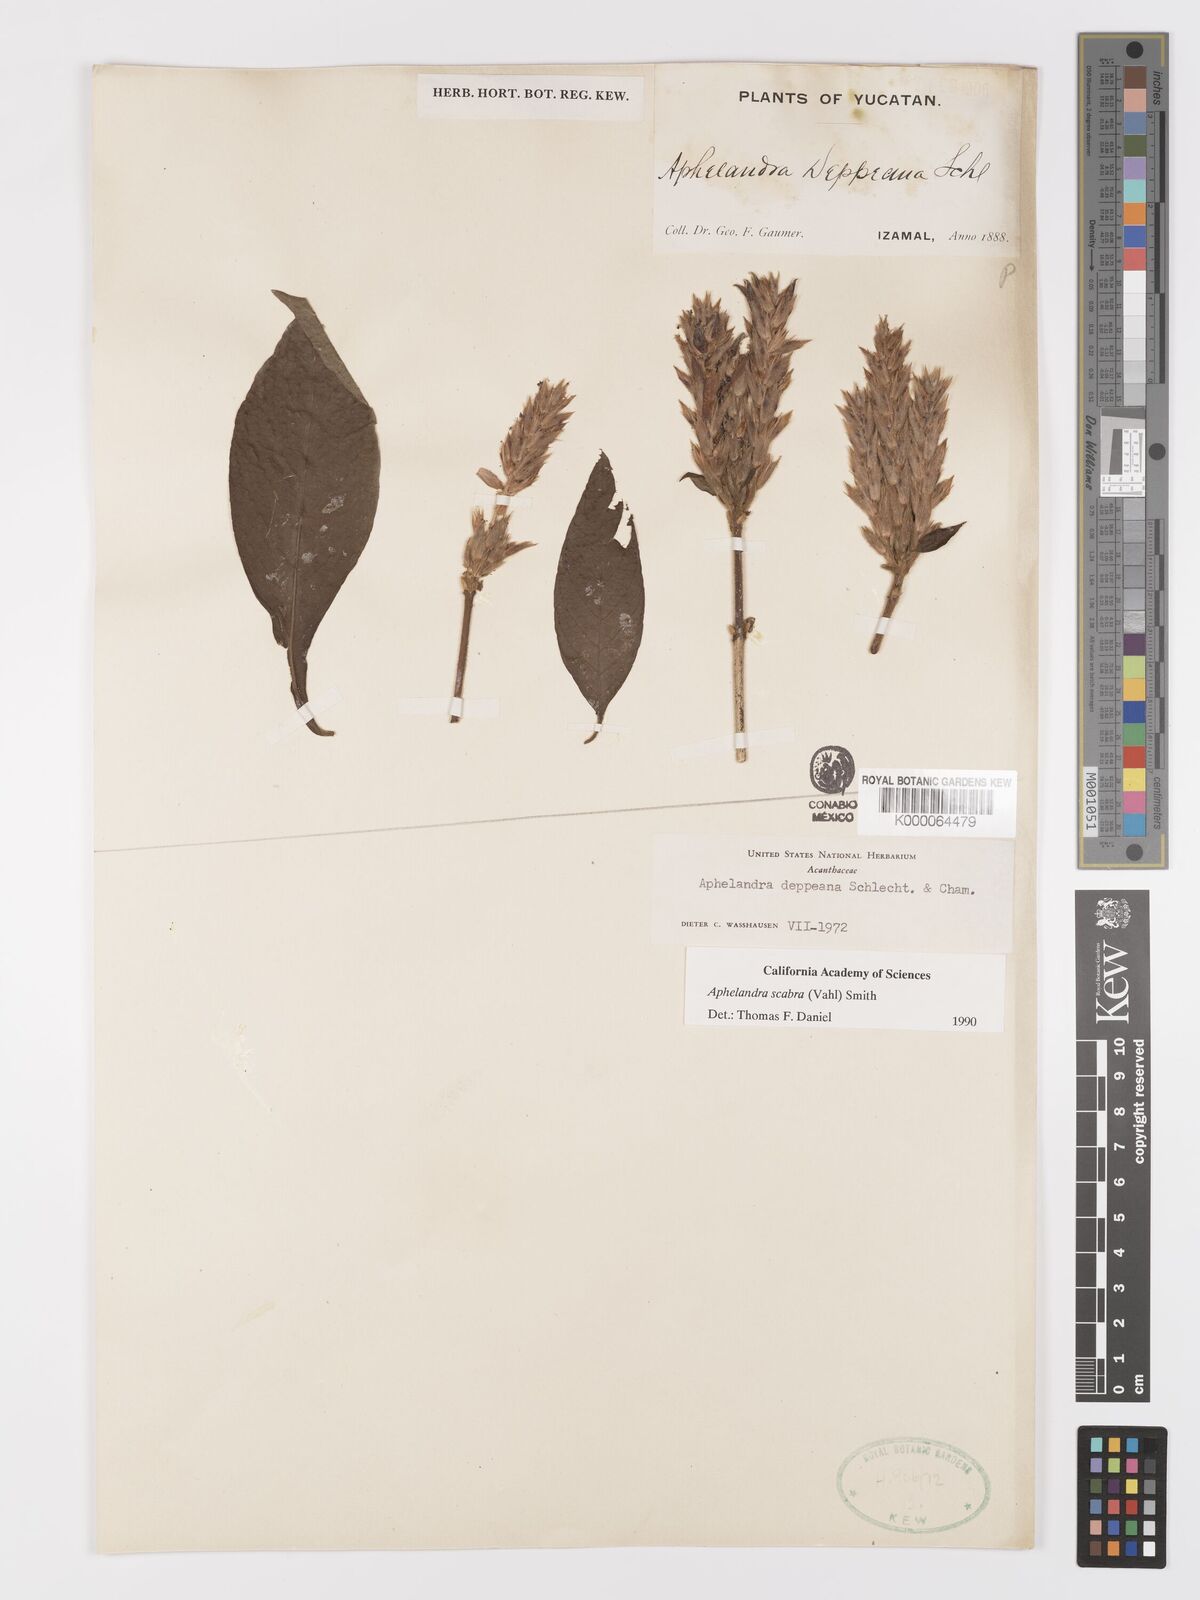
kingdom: Plantae
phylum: Tracheophyta
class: Magnoliopsida
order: Lamiales
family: Acanthaceae
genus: Aphelandra
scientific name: Aphelandra scabra
